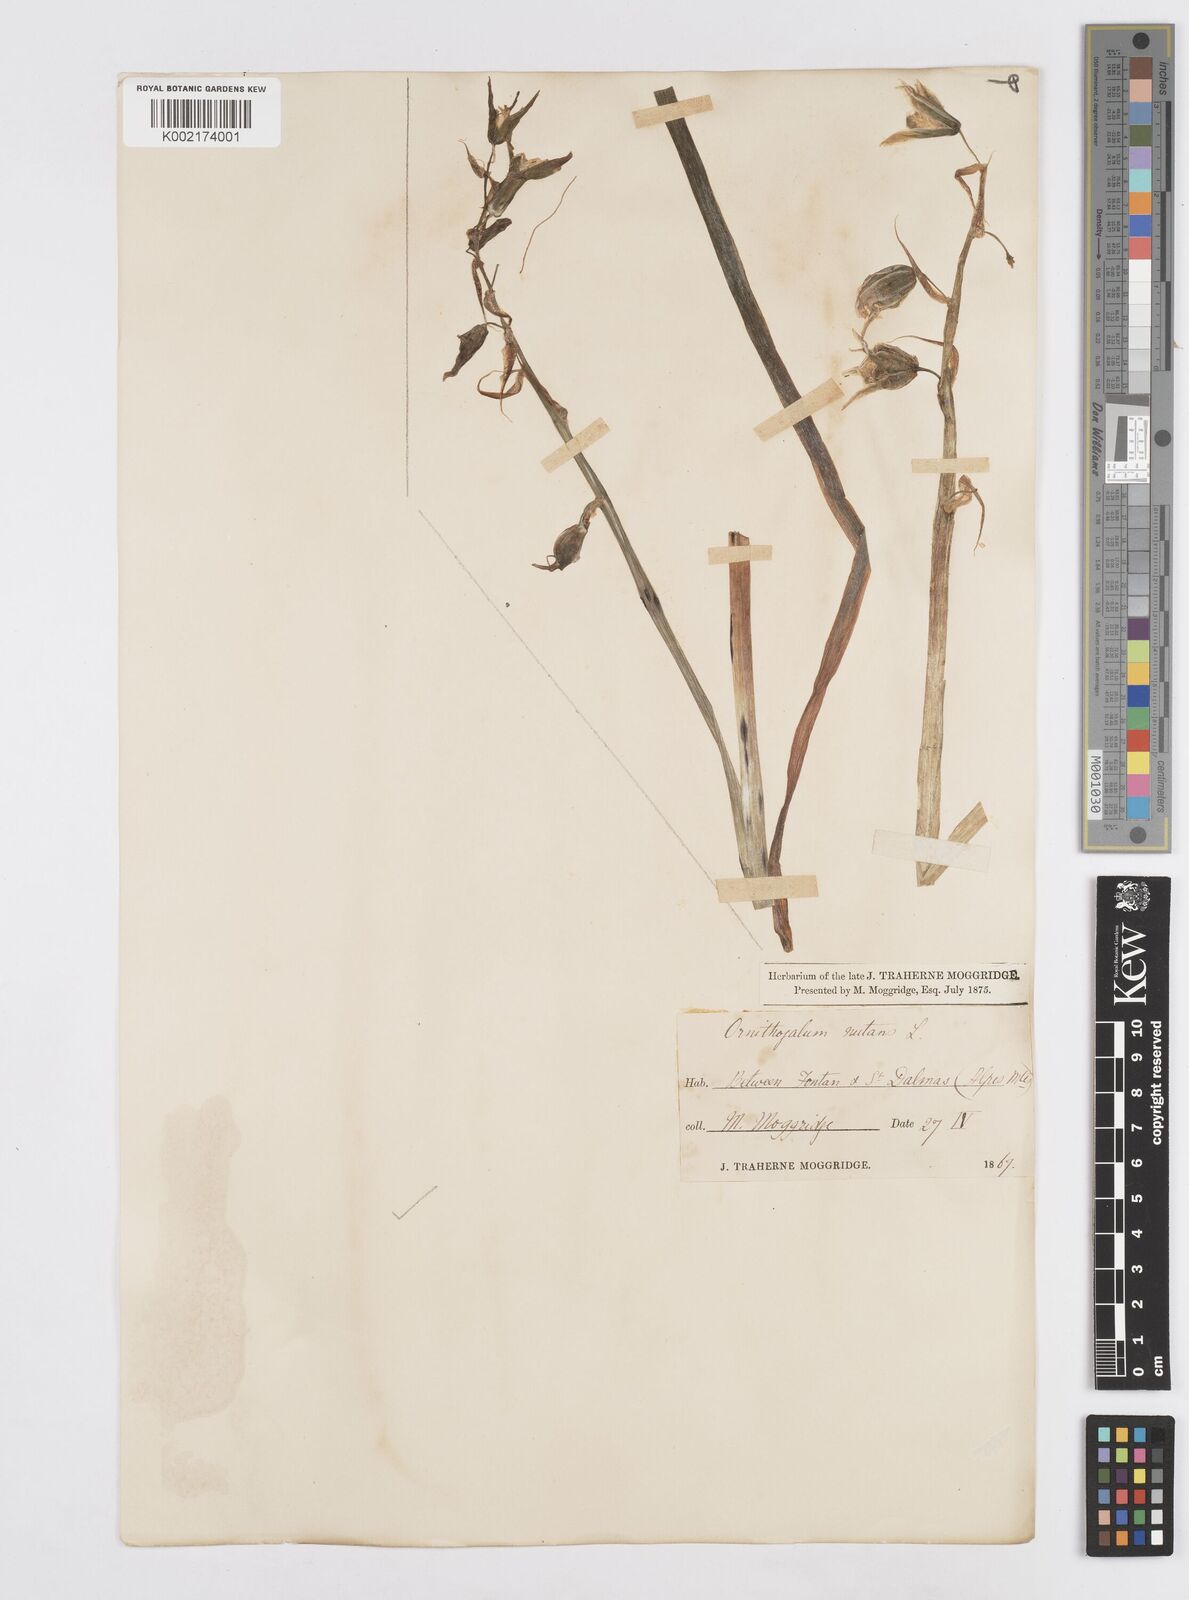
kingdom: Plantae
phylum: Tracheophyta
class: Liliopsida
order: Asparagales
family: Asparagaceae
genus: Ornithogalum
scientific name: Ornithogalum nutans
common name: Drooping star-of-bethlehem
